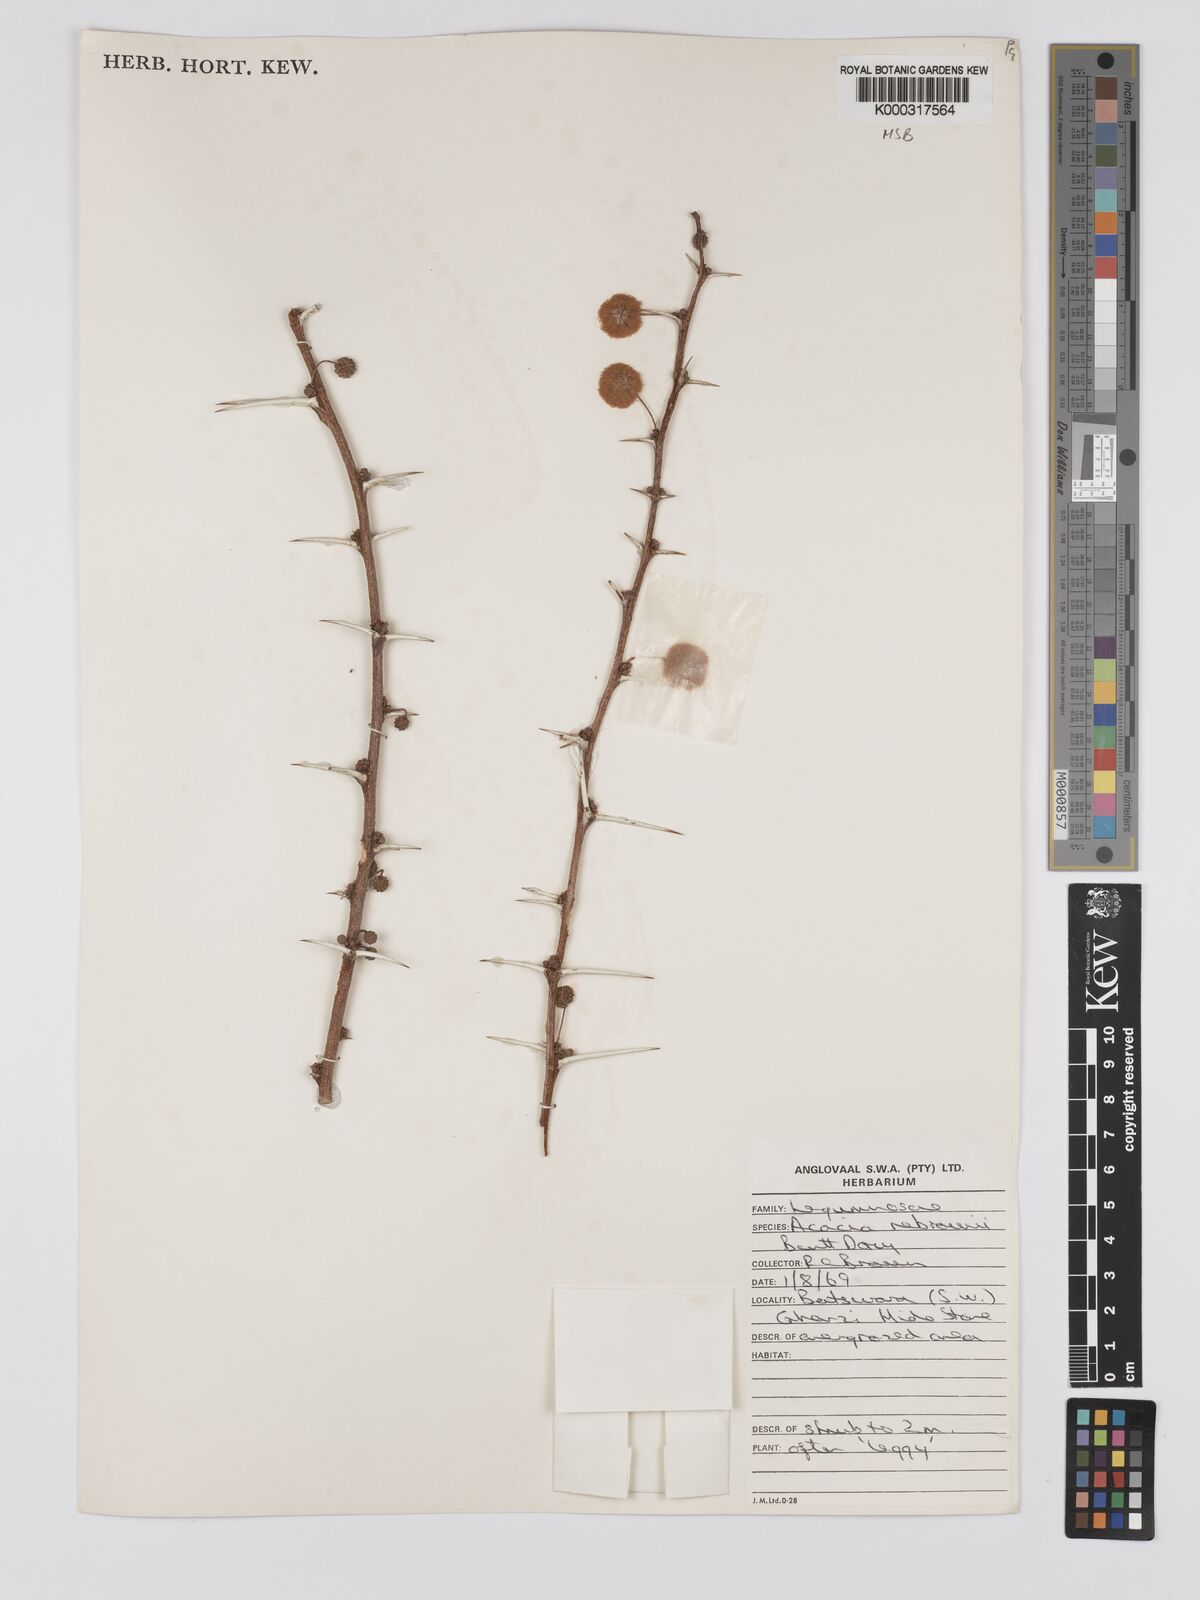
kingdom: Plantae
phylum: Tracheophyta
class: Magnoliopsida
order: Fabales
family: Fabaceae
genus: Vachellia
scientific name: Vachellia nebrownii
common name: Water acacia
